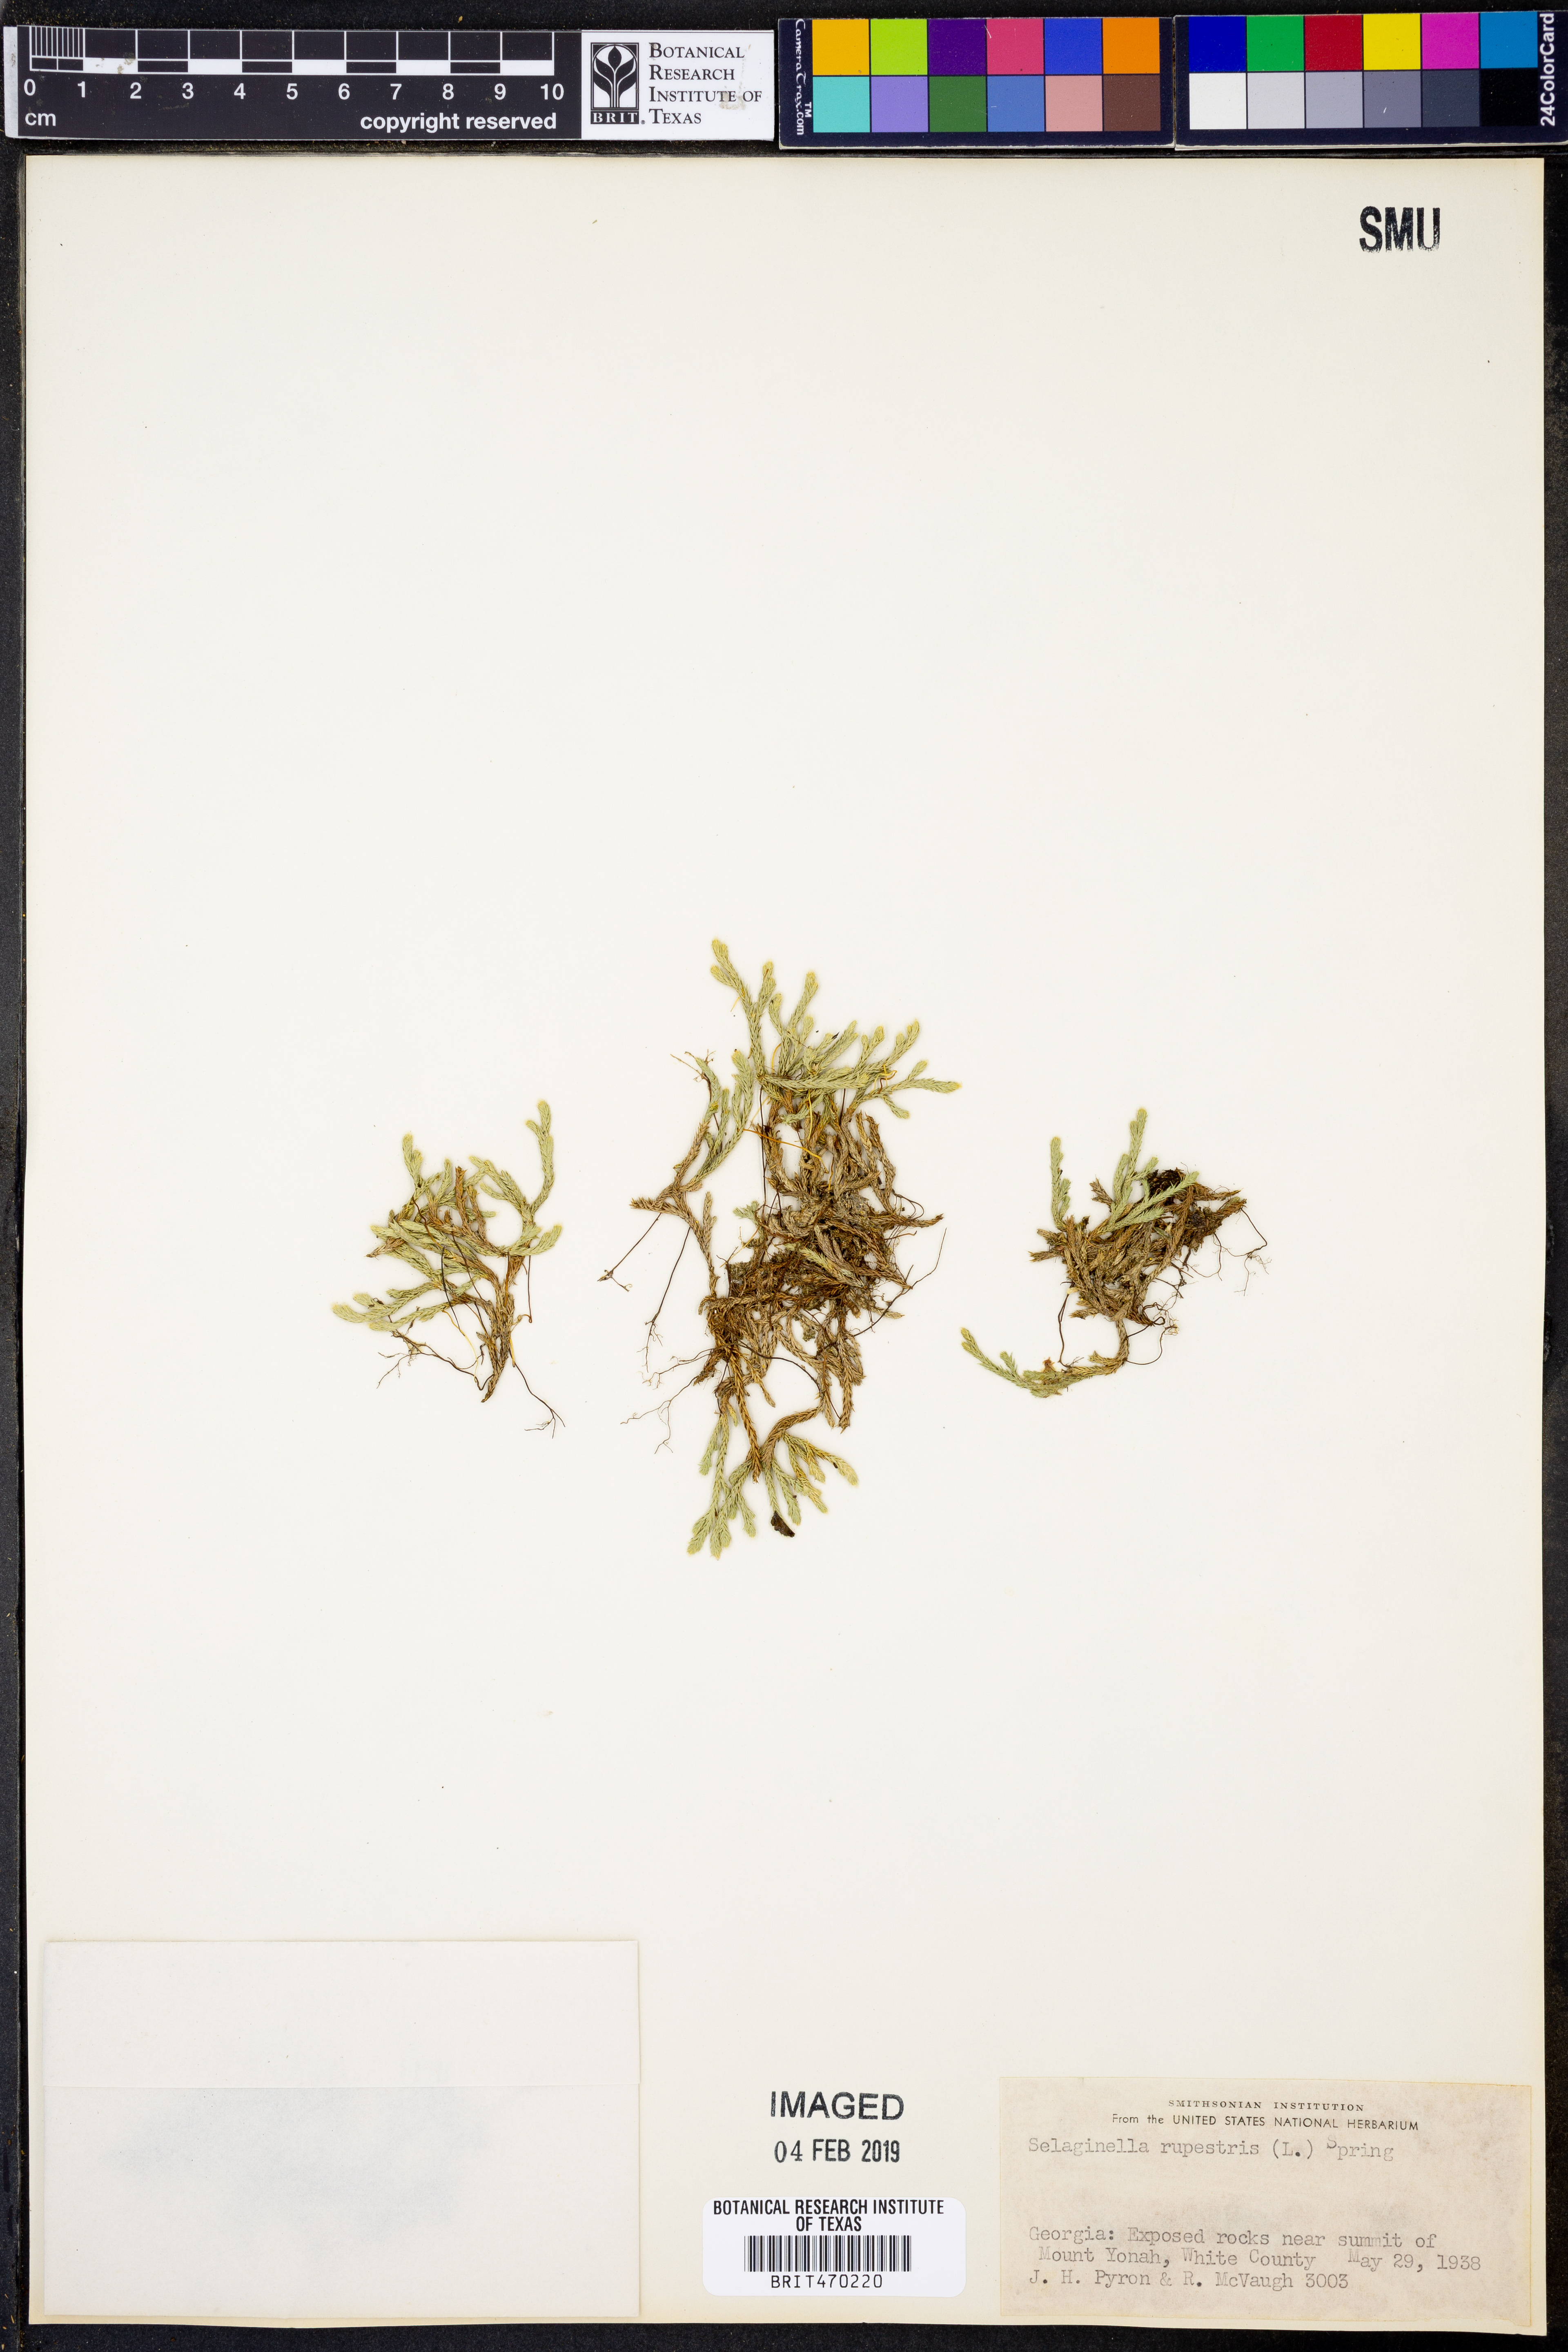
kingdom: Plantae
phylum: Tracheophyta
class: Lycopodiopsida
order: Selaginellales
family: Selaginellaceae
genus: Selaginella
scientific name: Selaginella rupestris
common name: Dwarf spikemoss
